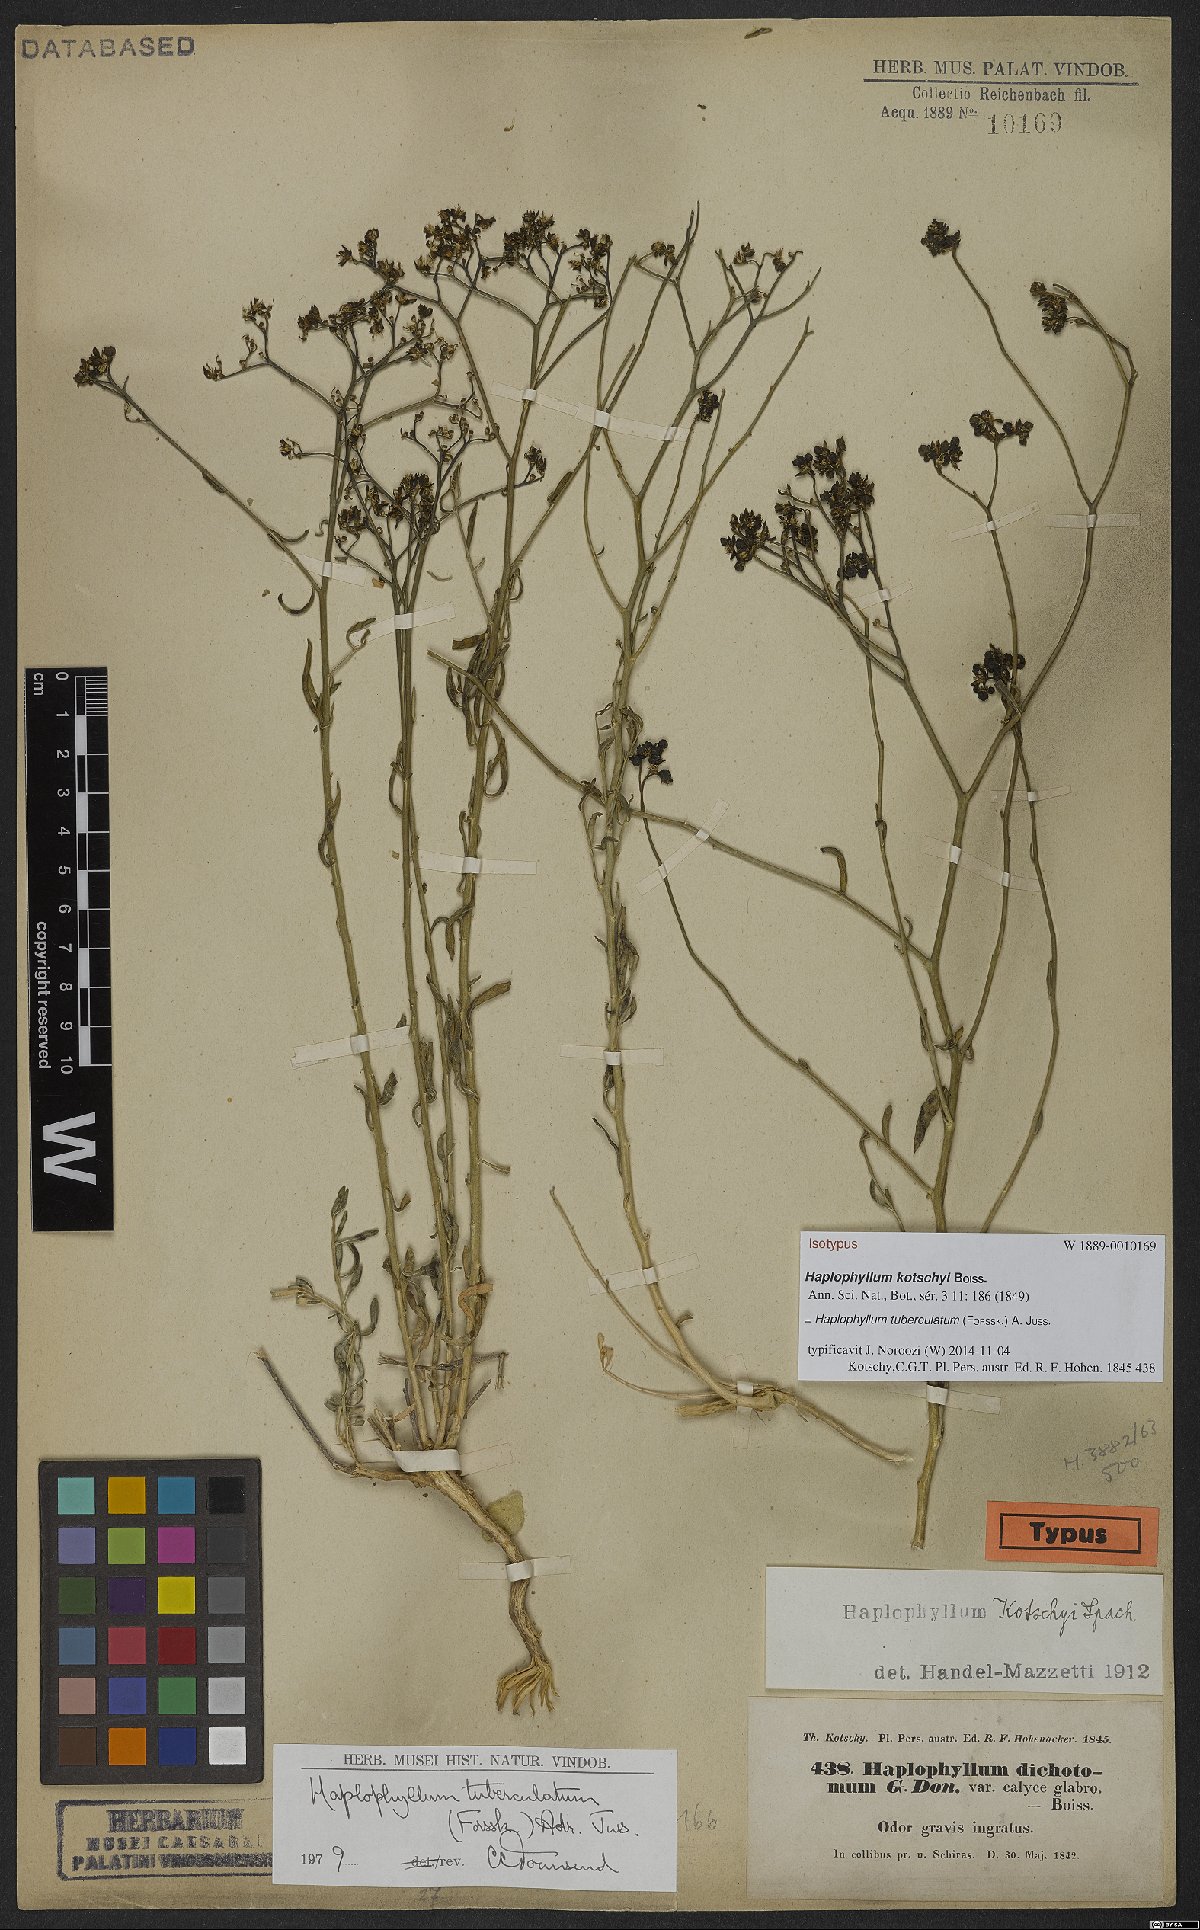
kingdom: Plantae
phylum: Tracheophyta
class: Magnoliopsida
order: Sapindales
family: Rutaceae
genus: Haplophyllum
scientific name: Haplophyllum tuberculatum
